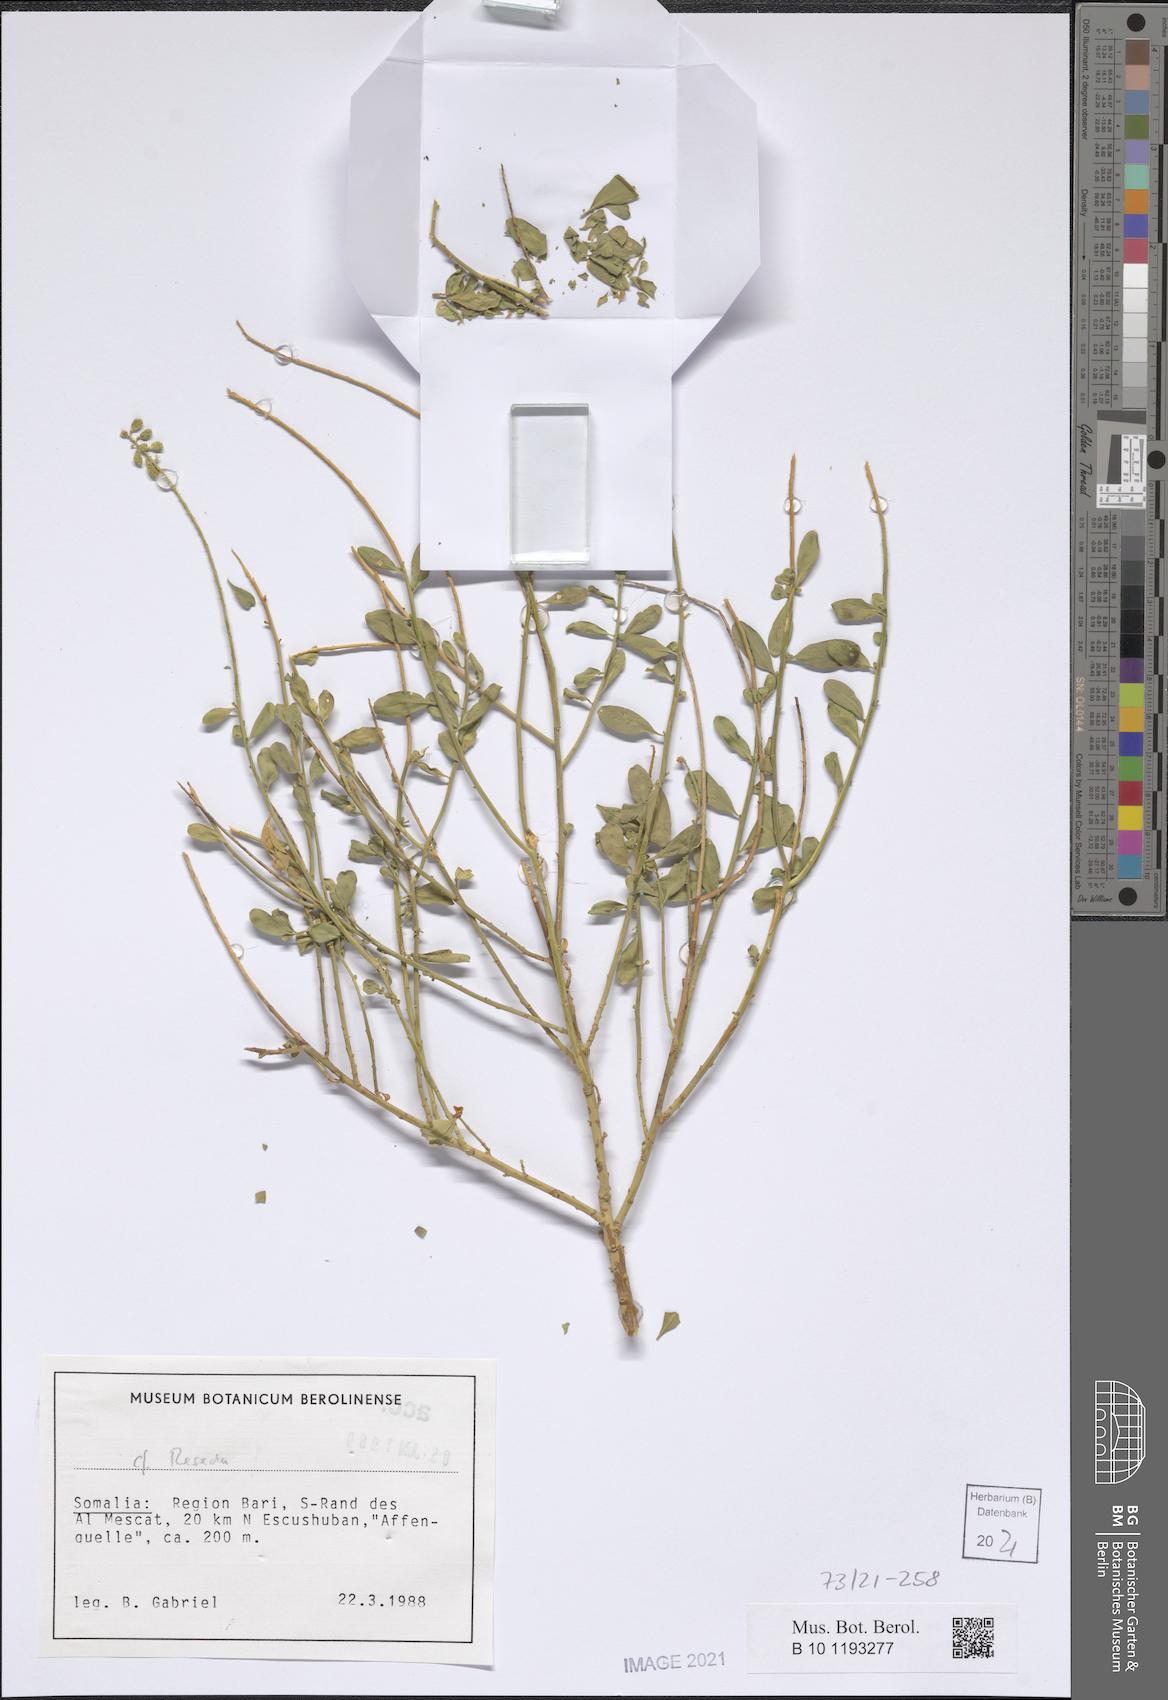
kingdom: Plantae
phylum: Tracheophyta
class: Magnoliopsida
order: Brassicales
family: Resedaceae
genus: Reseda
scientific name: Reseda
